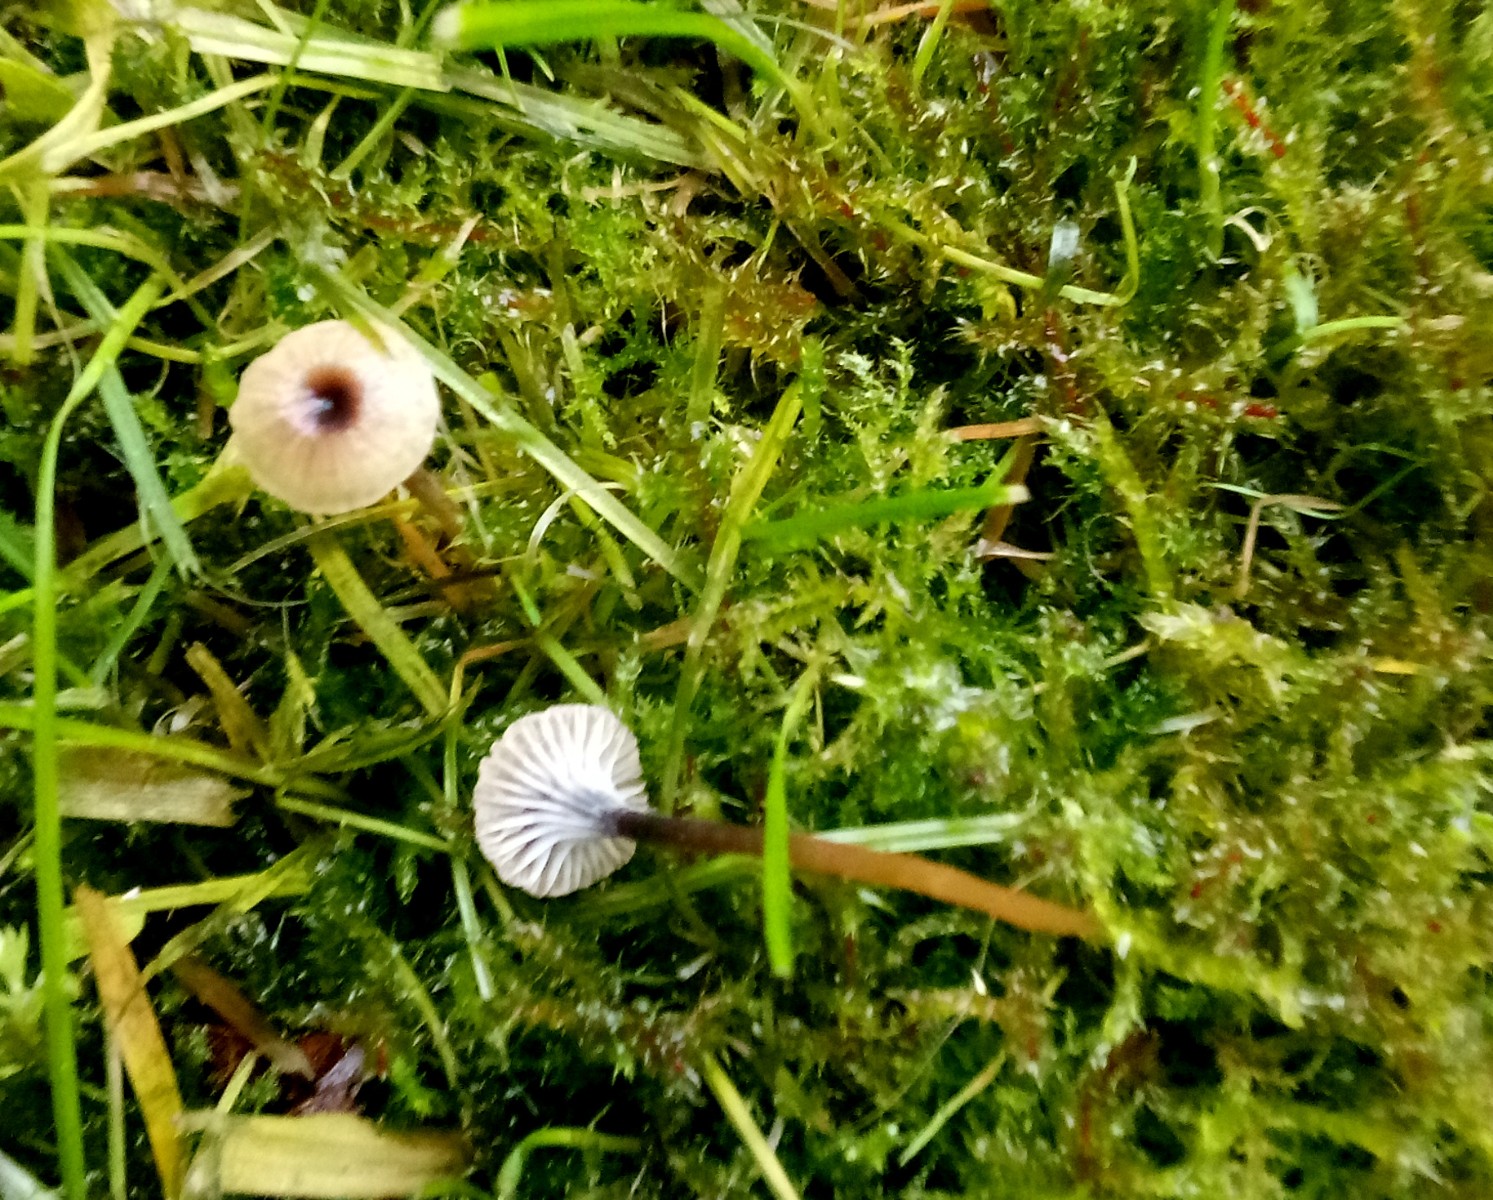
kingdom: Fungi
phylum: Basidiomycota
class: Agaricomycetes
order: Hymenochaetales
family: Rickenellaceae
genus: Rickenella
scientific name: Rickenella swartzii
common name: finstokket mosnavlehat
